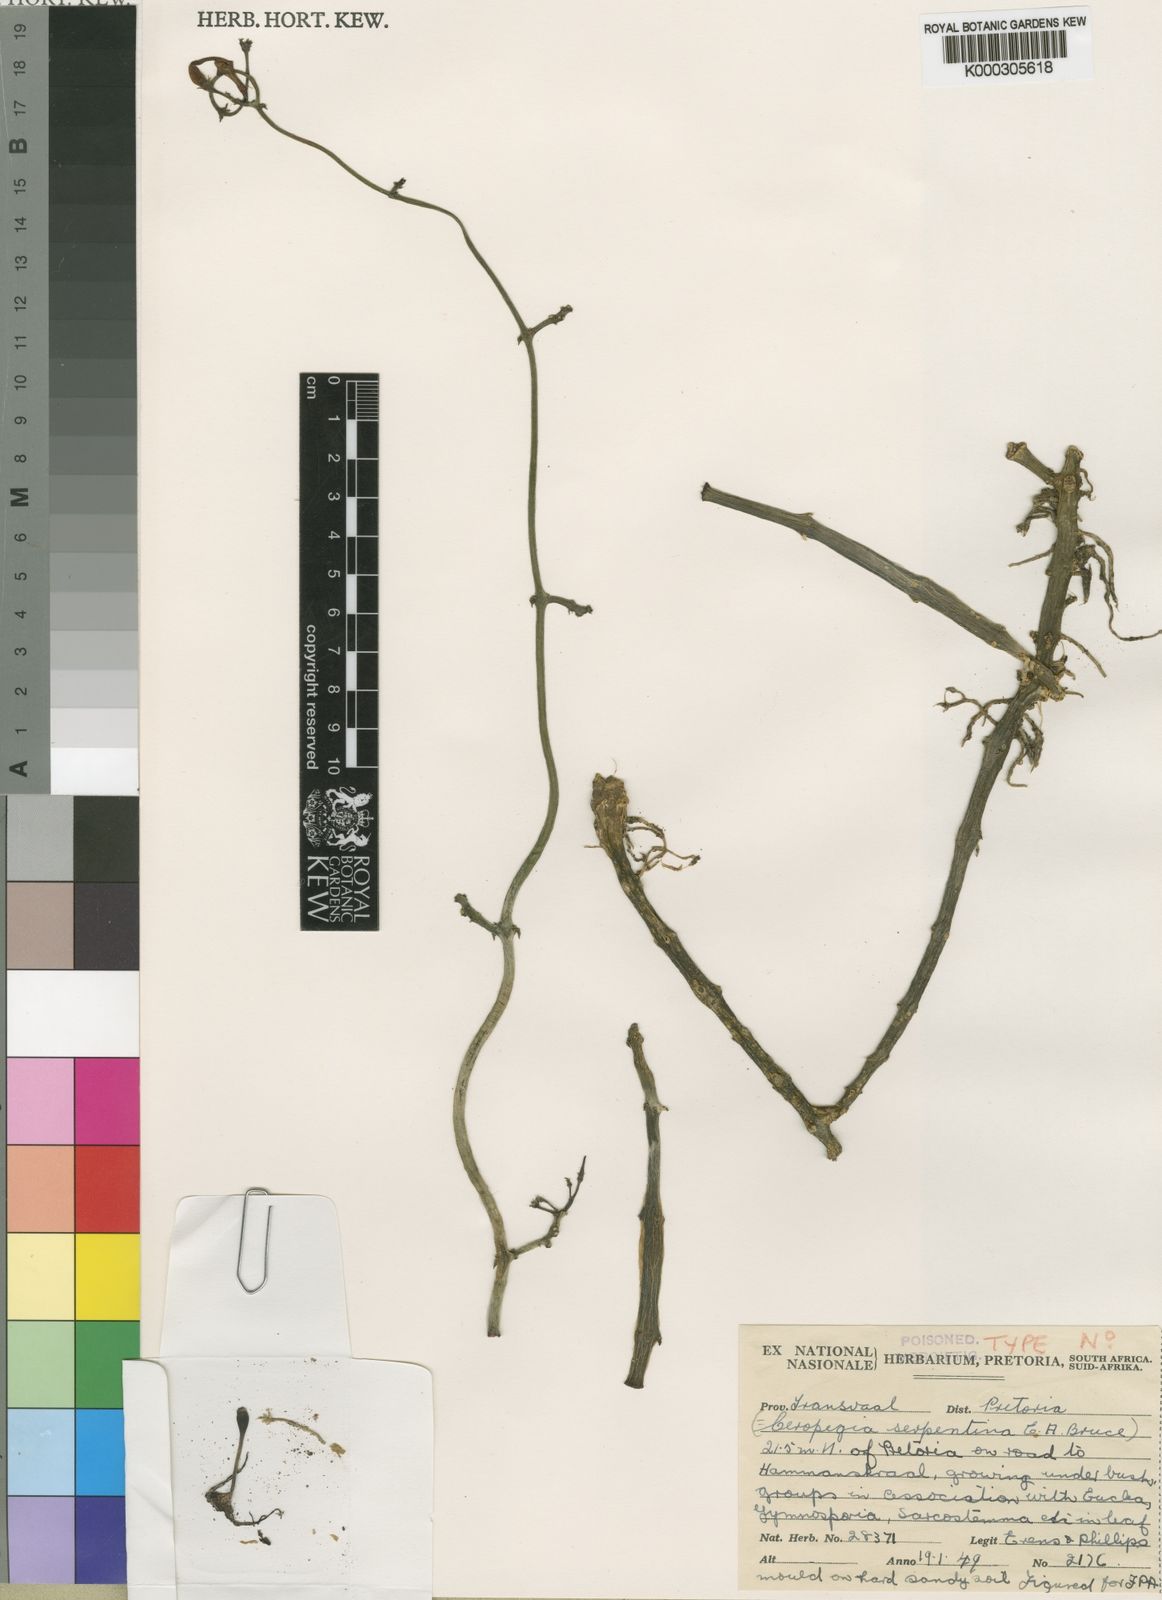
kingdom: Plantae
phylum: Tracheophyta
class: Magnoliopsida
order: Gentianales
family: Apocynaceae
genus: Ceropegia
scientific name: Ceropegia stapeliiformis
